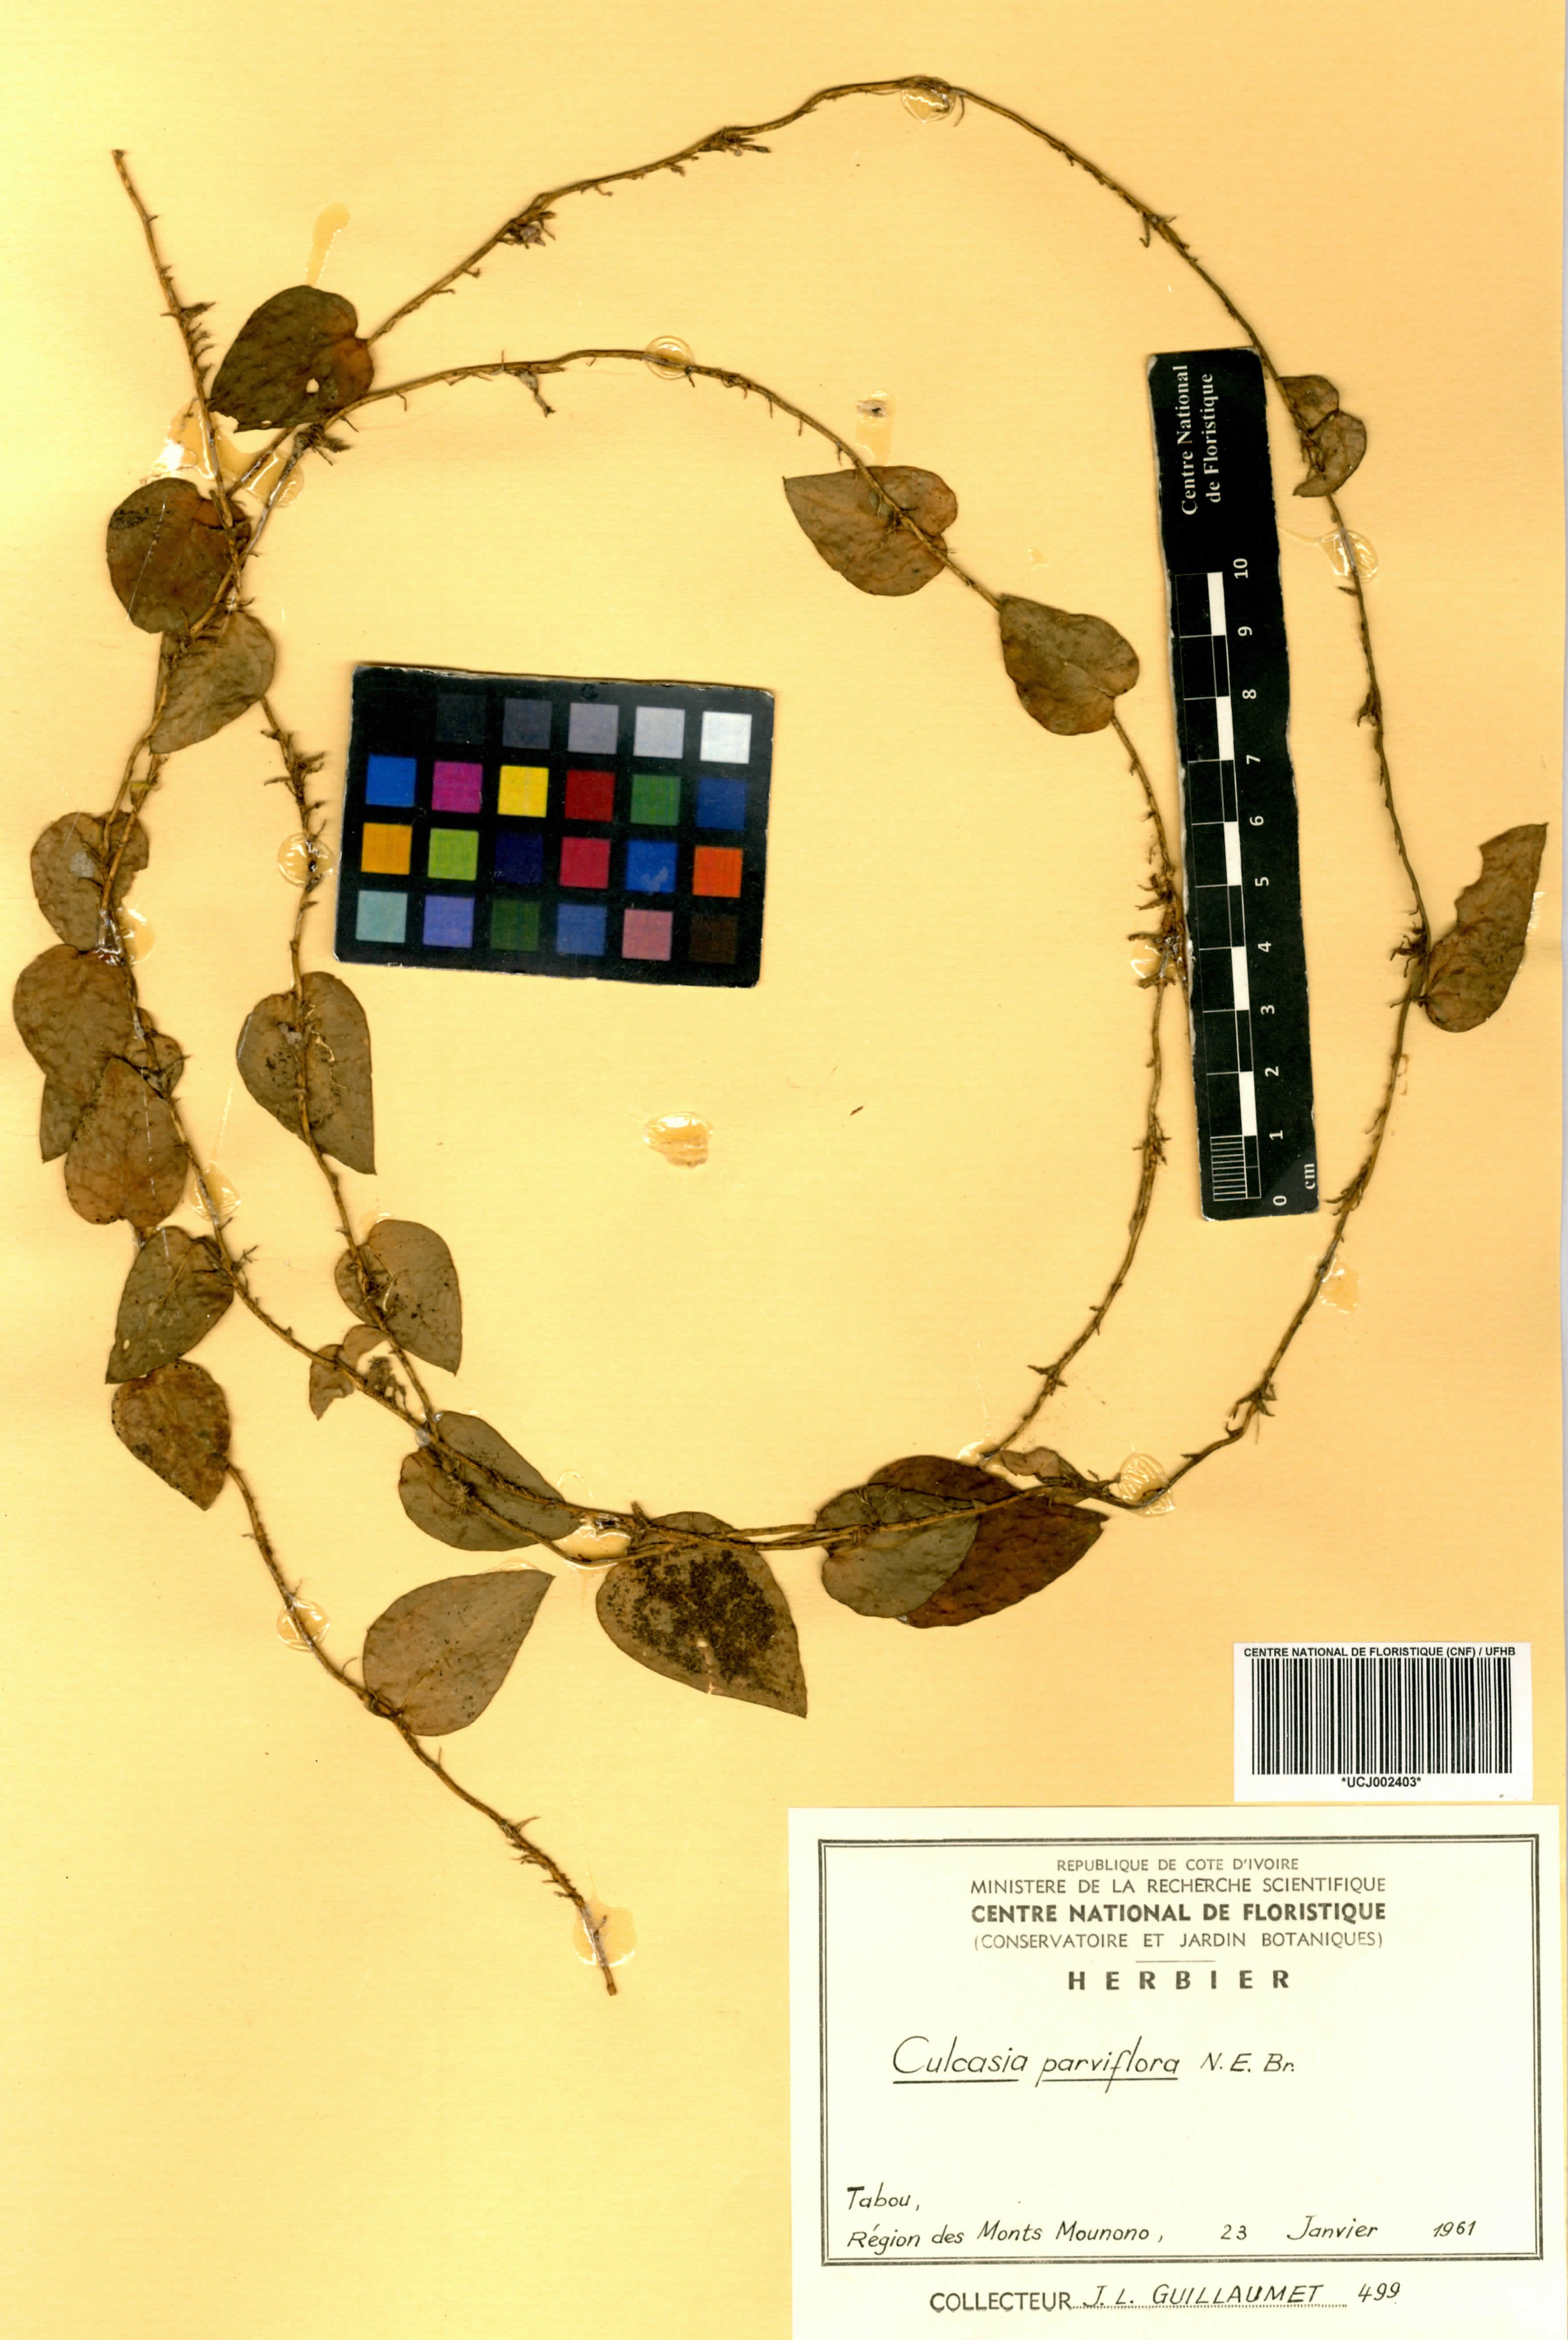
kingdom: Plantae
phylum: Tracheophyta
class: Liliopsida
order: Alismatales
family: Araceae
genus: Culcasia
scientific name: Culcasia parviflora
